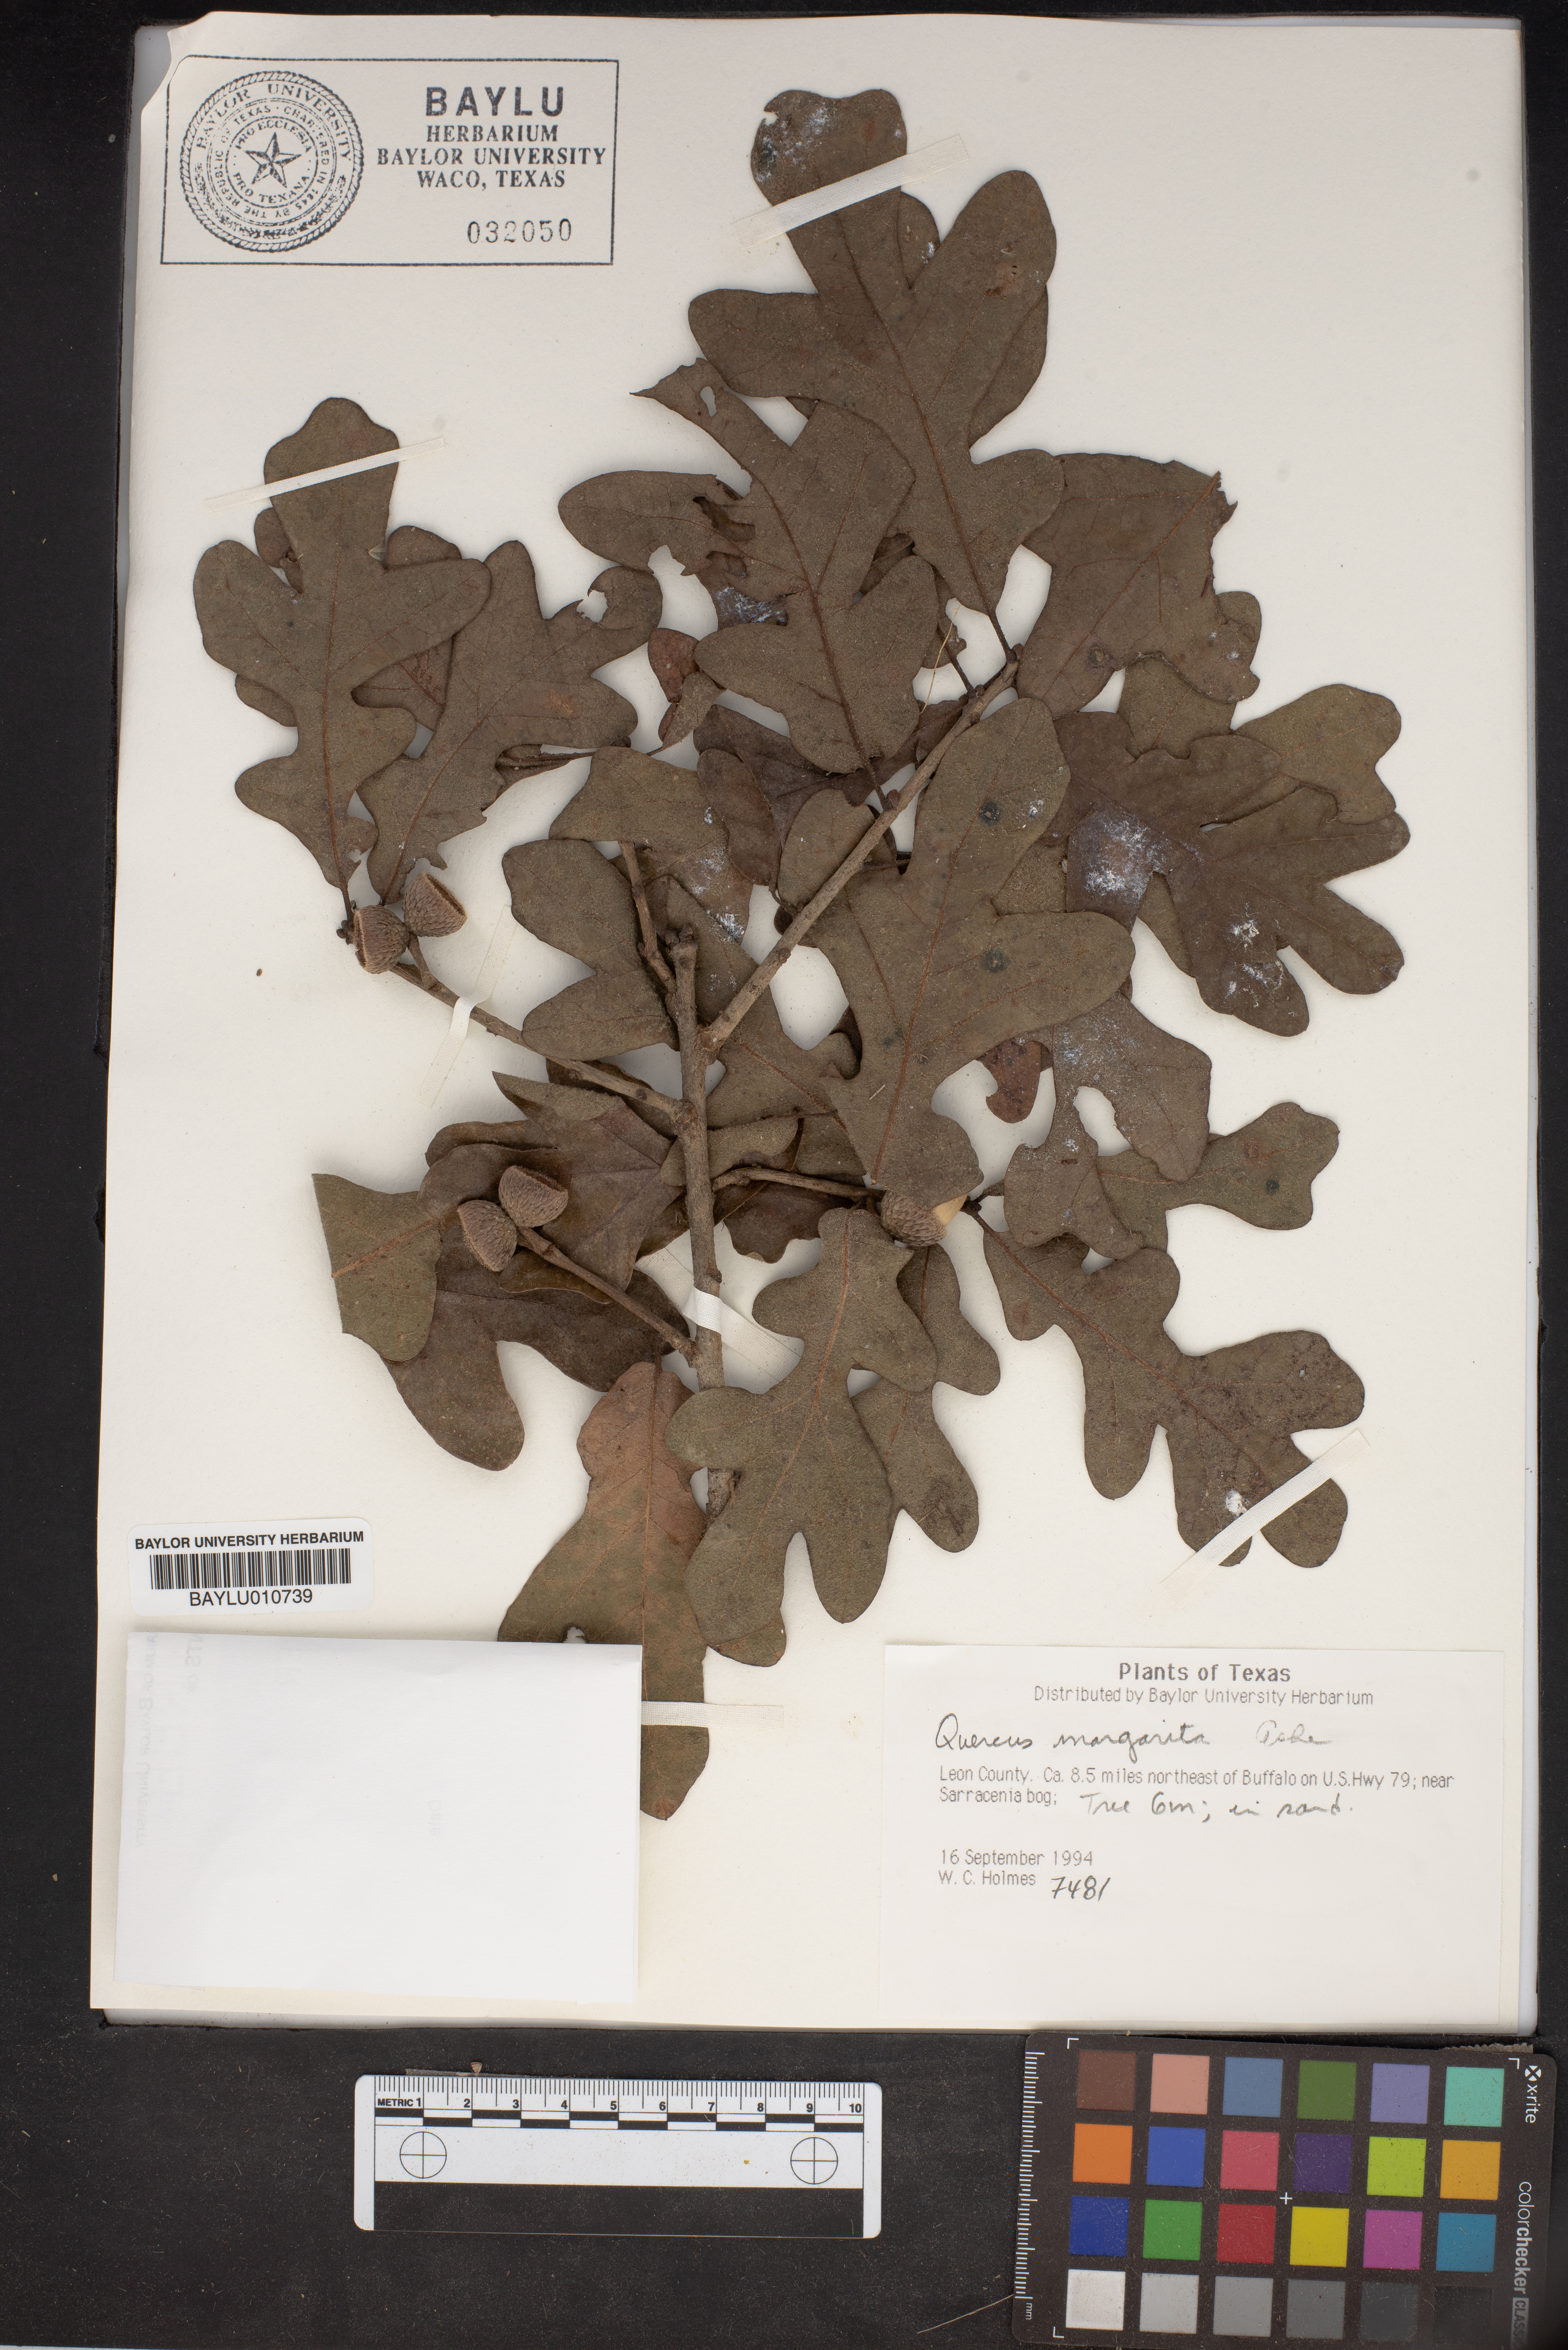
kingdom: Plantae
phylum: Tracheophyta
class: Magnoliopsida
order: Fagales
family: Fagaceae
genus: Quercus
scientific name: Quercus margaretta
